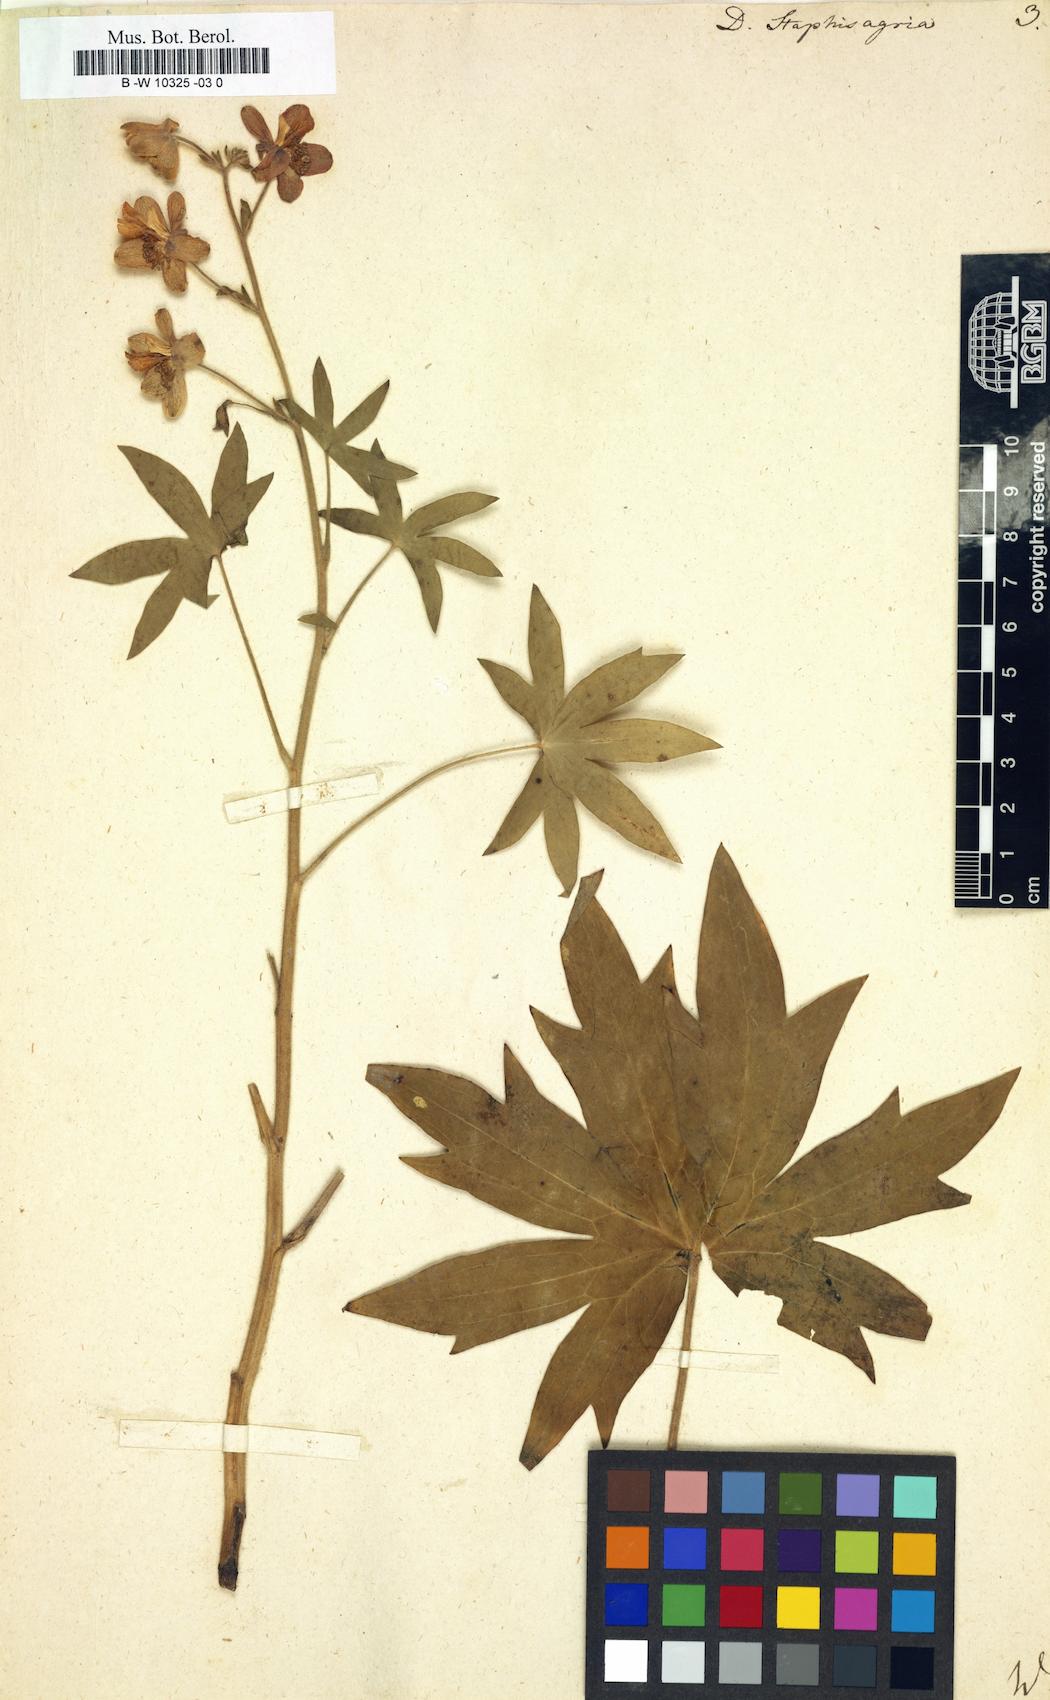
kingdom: Plantae
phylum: Tracheophyta
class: Magnoliopsida
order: Ranunculales
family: Ranunculaceae
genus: Staphisagria
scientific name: Staphisagria macrosperma
